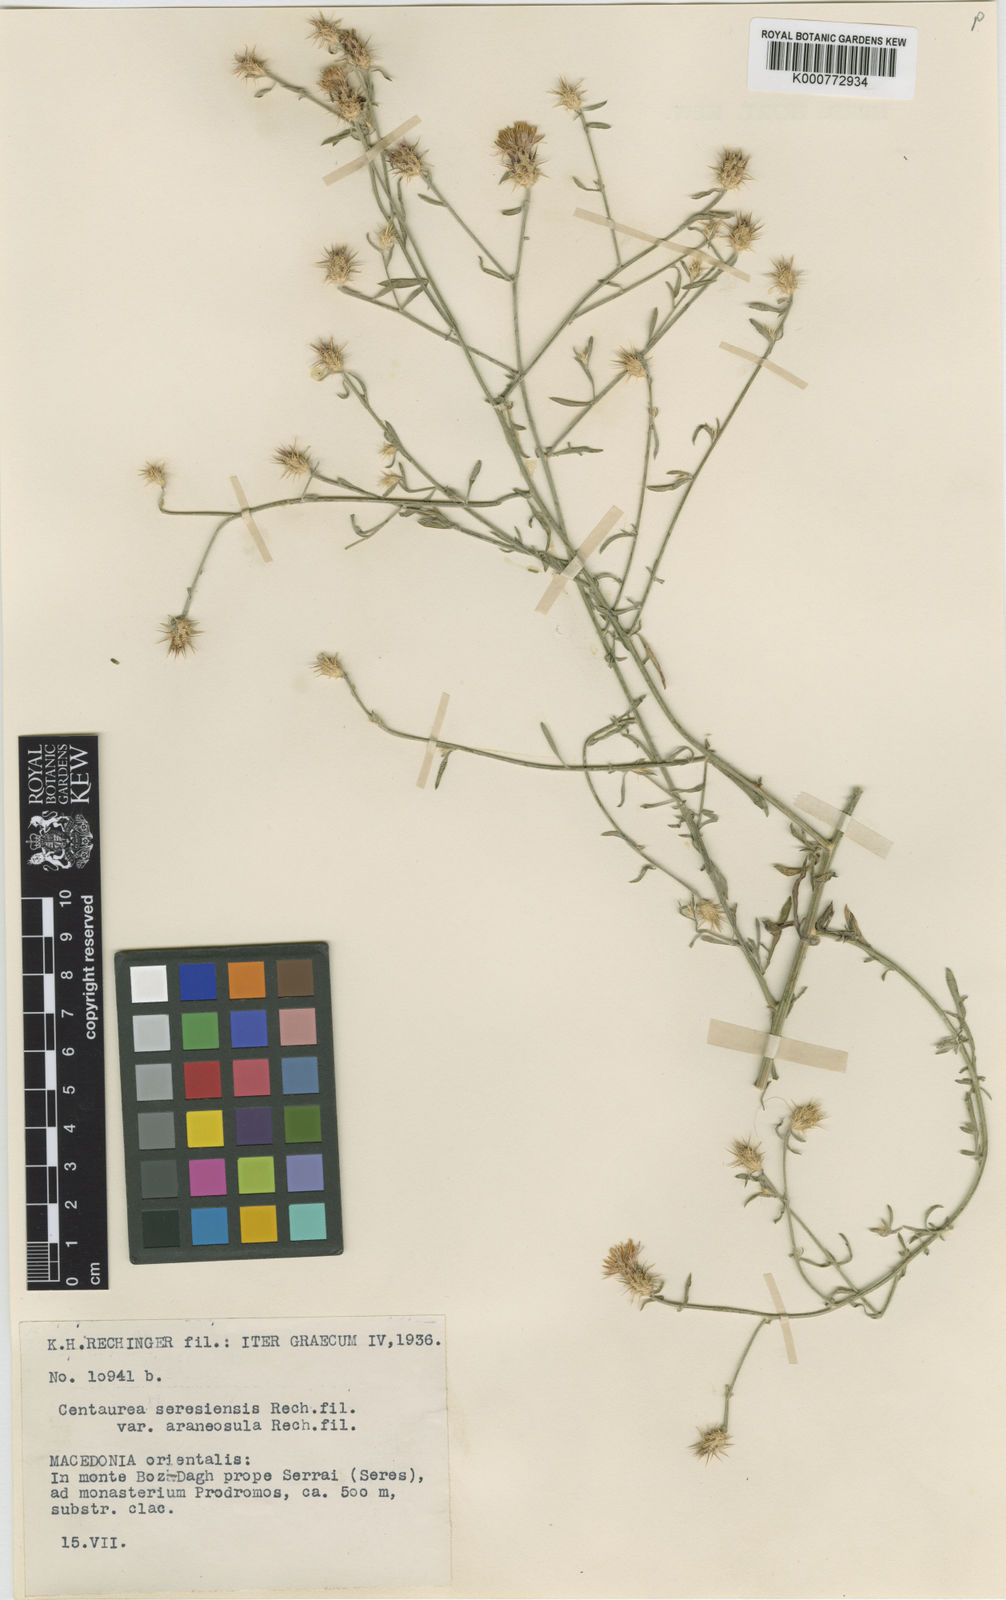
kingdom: Plantae
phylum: Tracheophyta
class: Magnoliopsida
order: Asterales
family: Asteraceae
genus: Centaurea
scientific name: Centaurea
